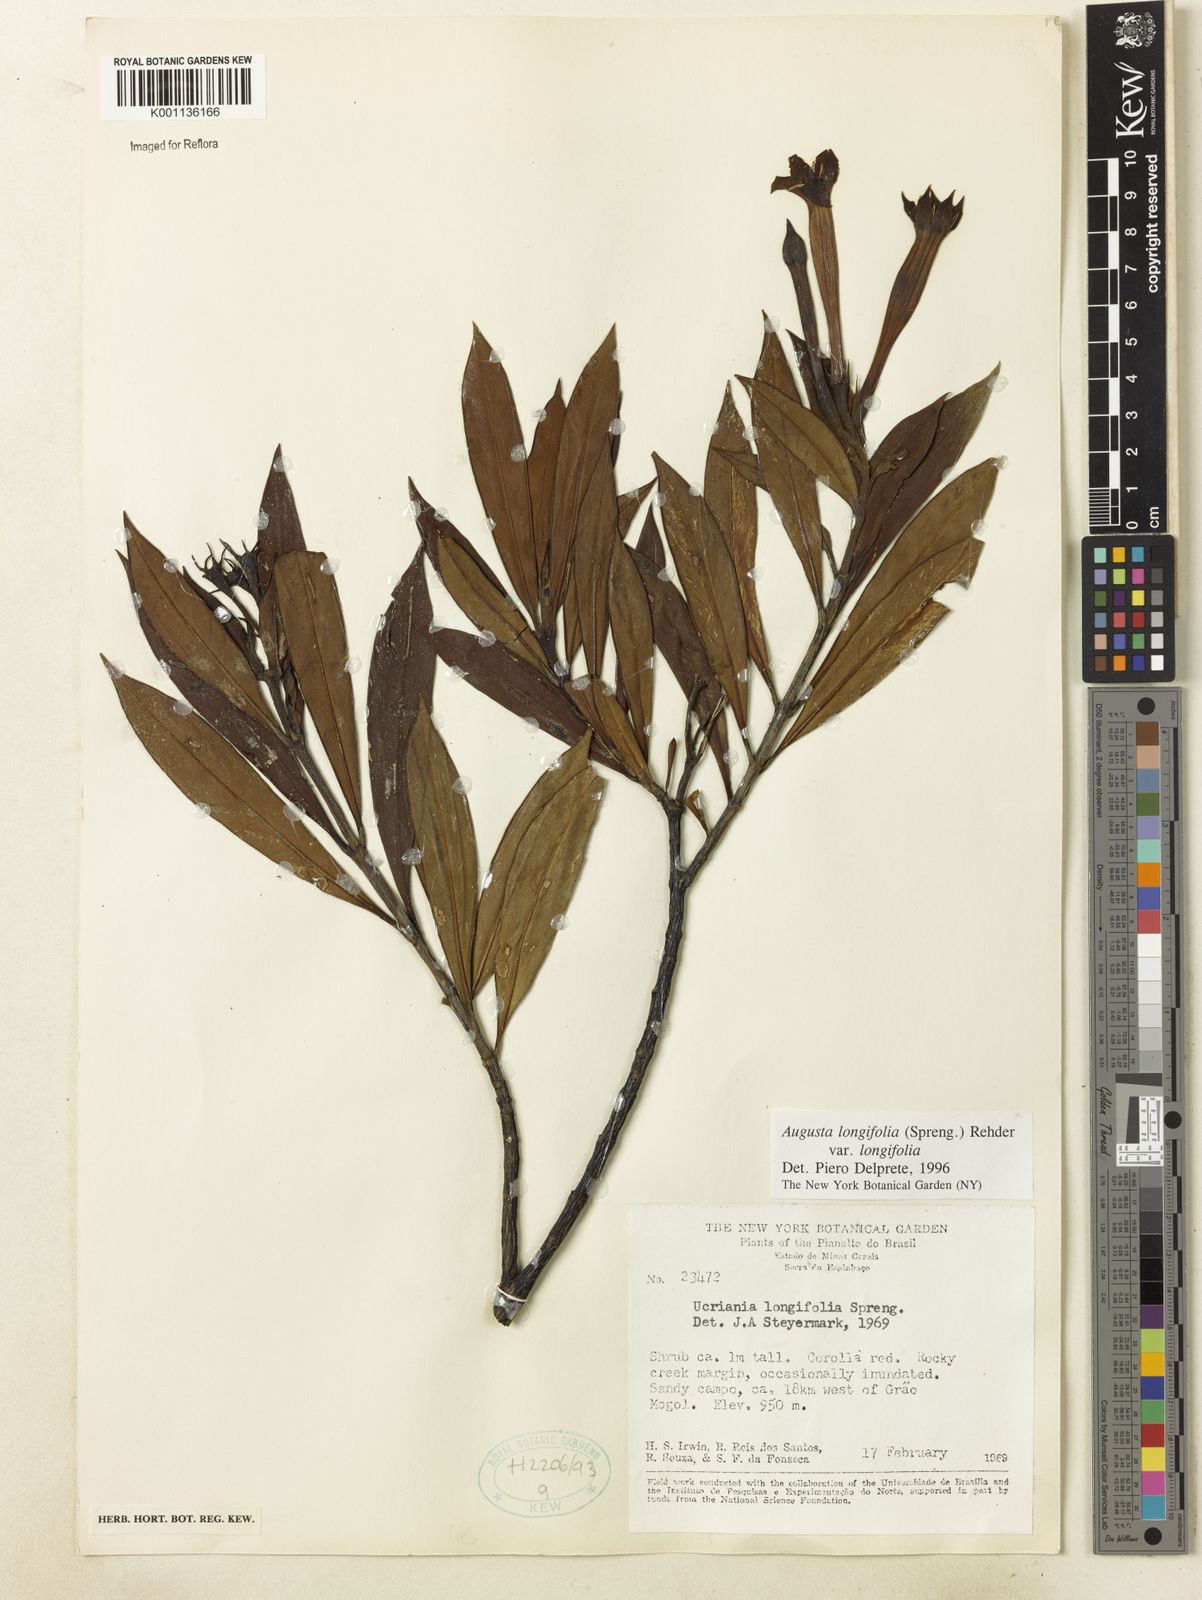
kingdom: Plantae
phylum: Tracheophyta
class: Magnoliopsida
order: Gentianales
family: Rubiaceae
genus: Augusta
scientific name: Augusta longifolia
